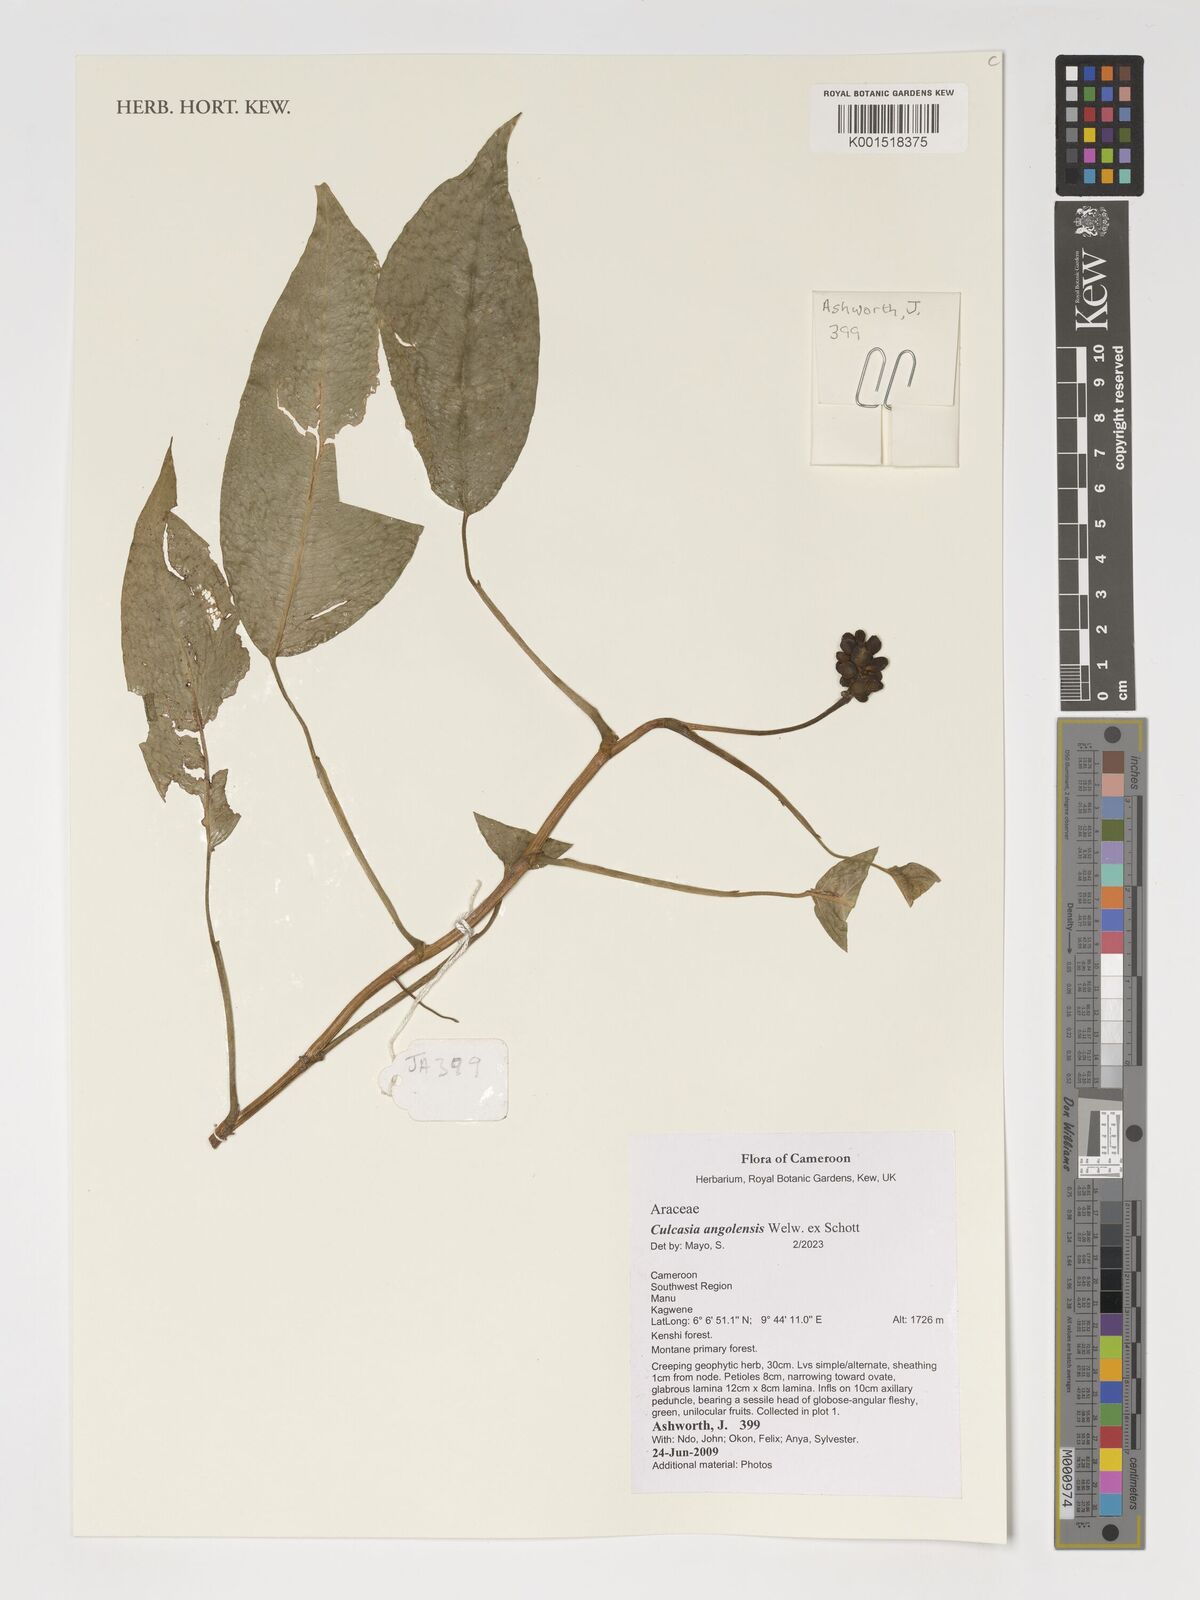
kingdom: Plantae
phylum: Tracheophyta
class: Liliopsida
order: Alismatales
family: Araceae
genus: Culcasia
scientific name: Culcasia angolensis
